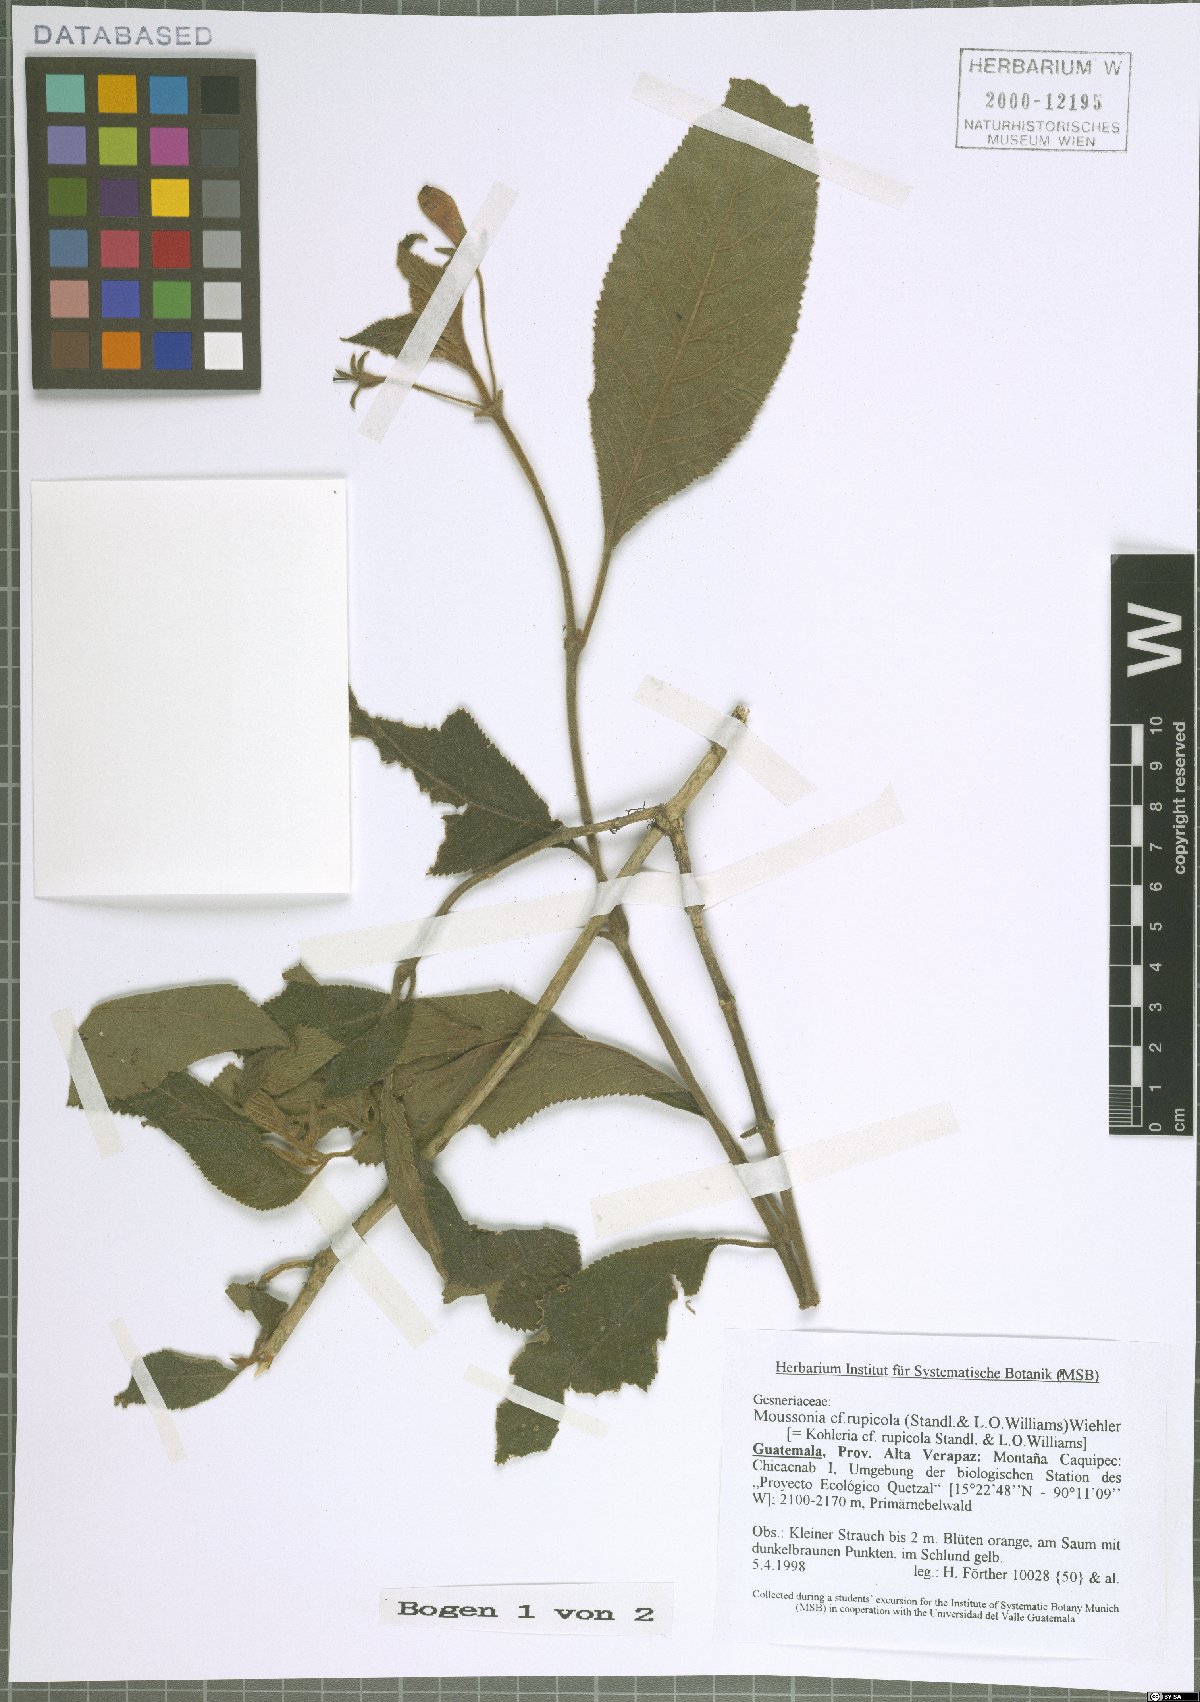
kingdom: Plantae
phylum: Tracheophyta
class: Magnoliopsida
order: Lamiales
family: Gesneriaceae
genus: Moussonia
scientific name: Moussonia rupicola
